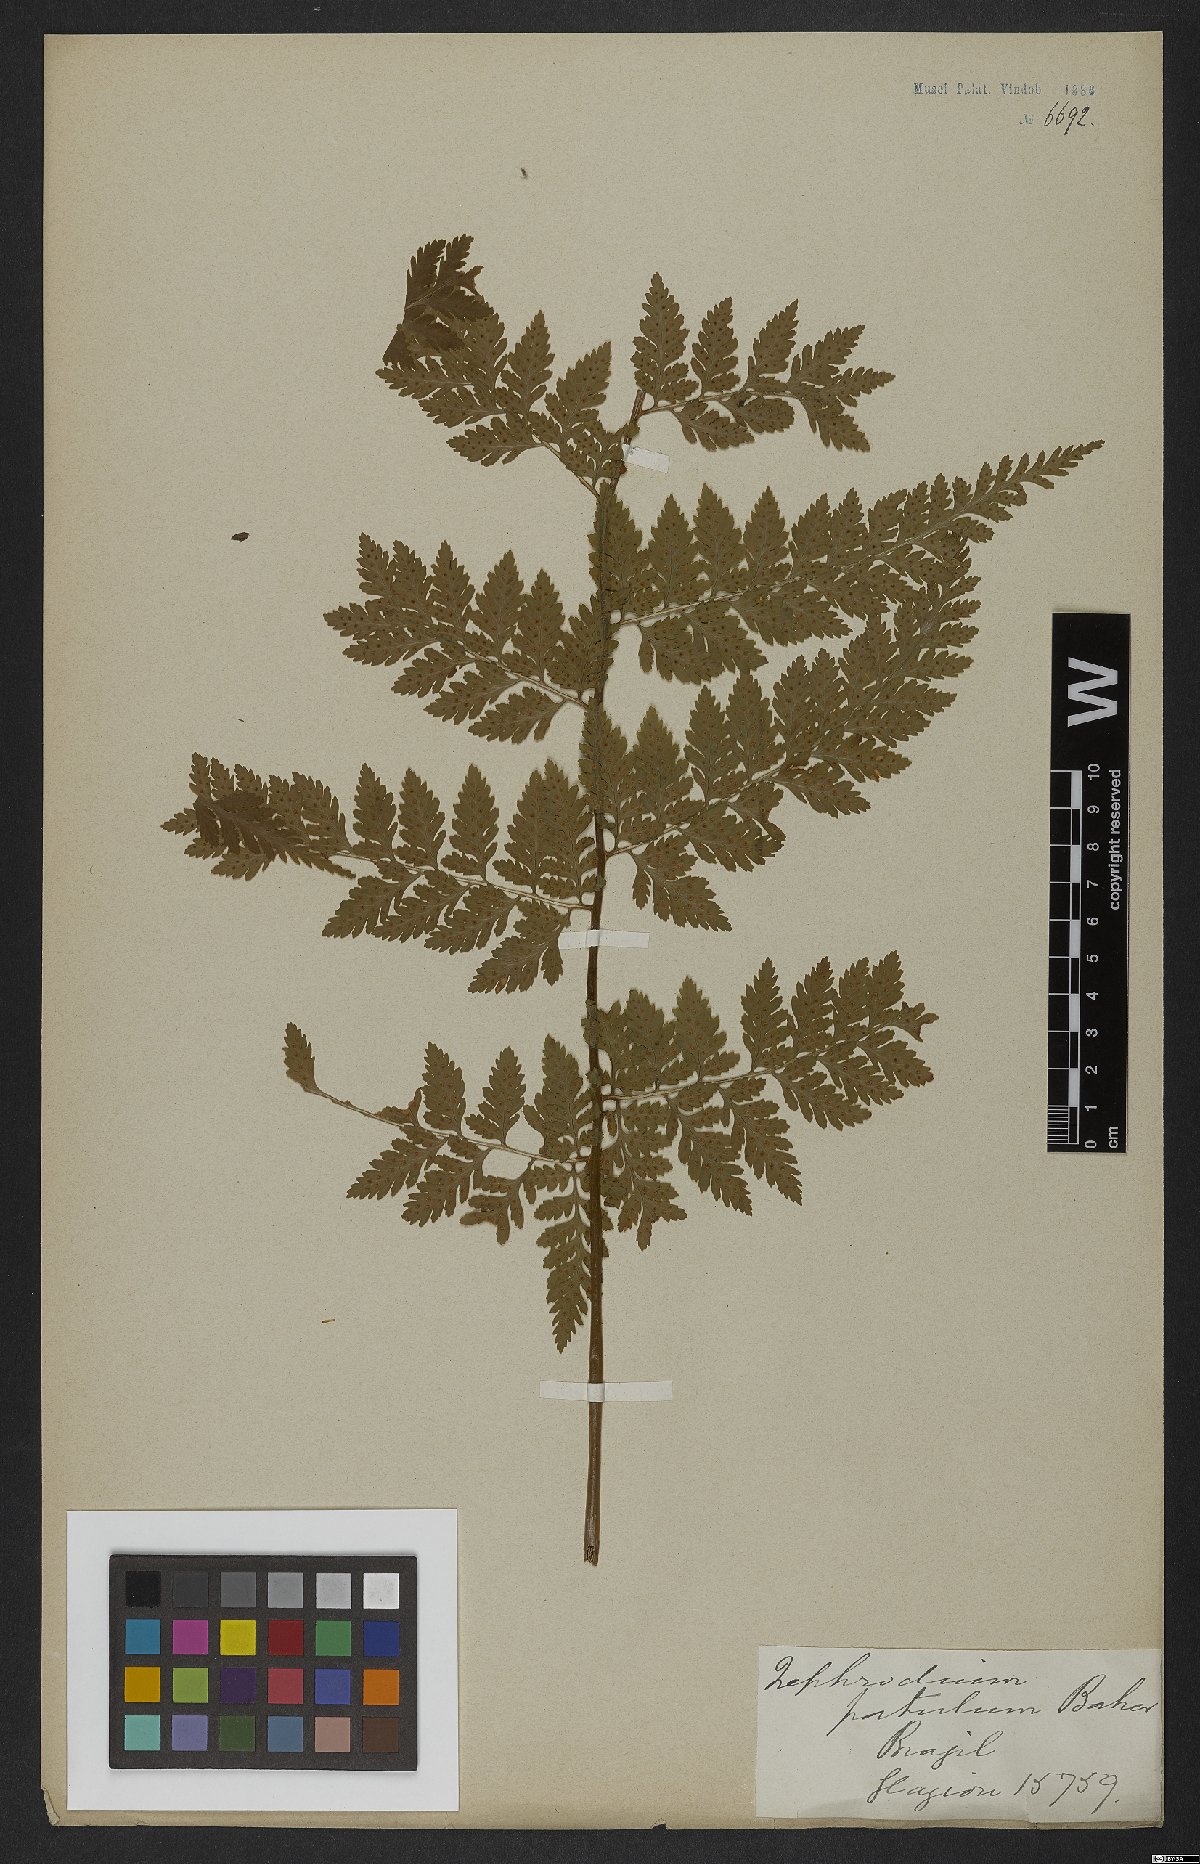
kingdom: Plantae
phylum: Tracheophyta
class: Polypodiopsida
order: Polypodiales
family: Dryopteridaceae
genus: Dryopteris
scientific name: Dryopteris patula
